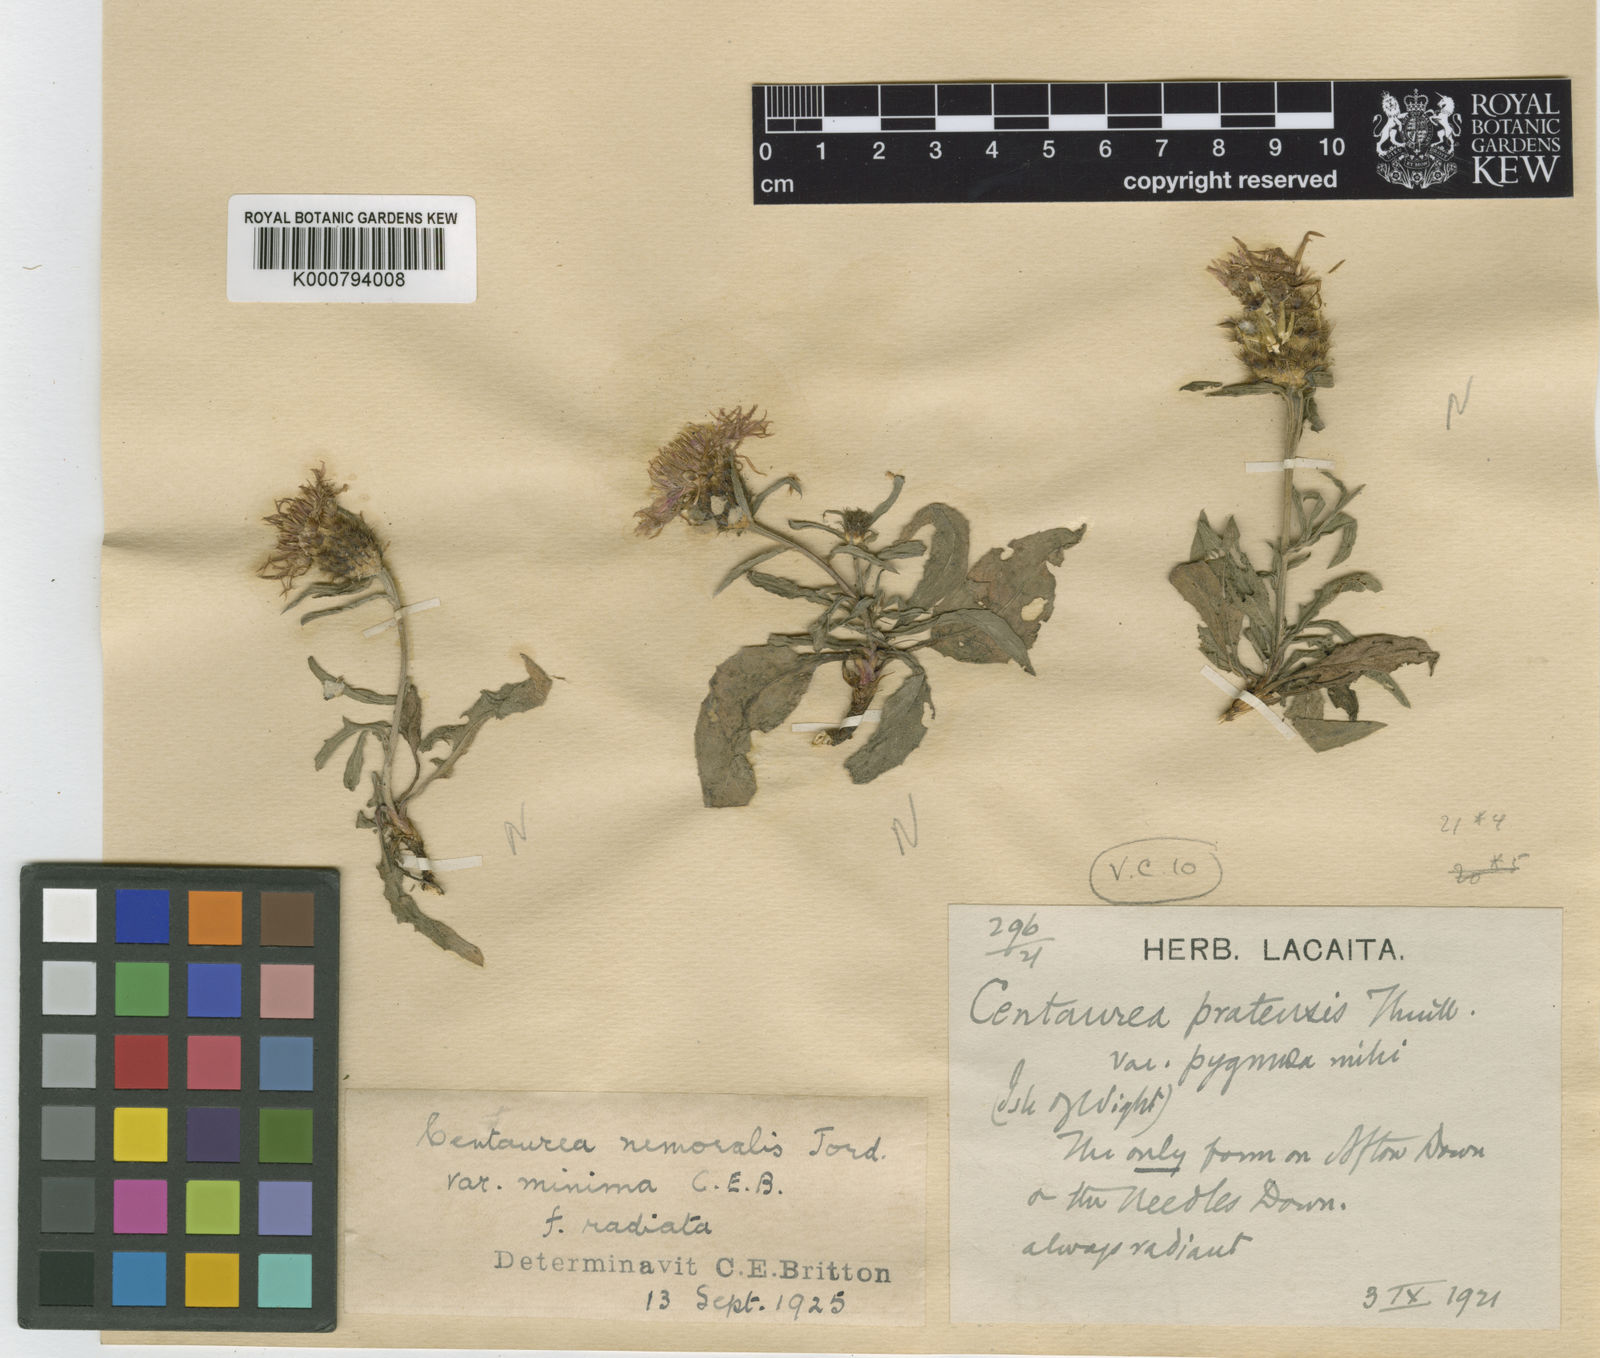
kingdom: Plantae
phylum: Tracheophyta
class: Magnoliopsida
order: Asterales
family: Asteraceae
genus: Centaurea
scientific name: Centaurea debeauxii
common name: Slender knapweed
